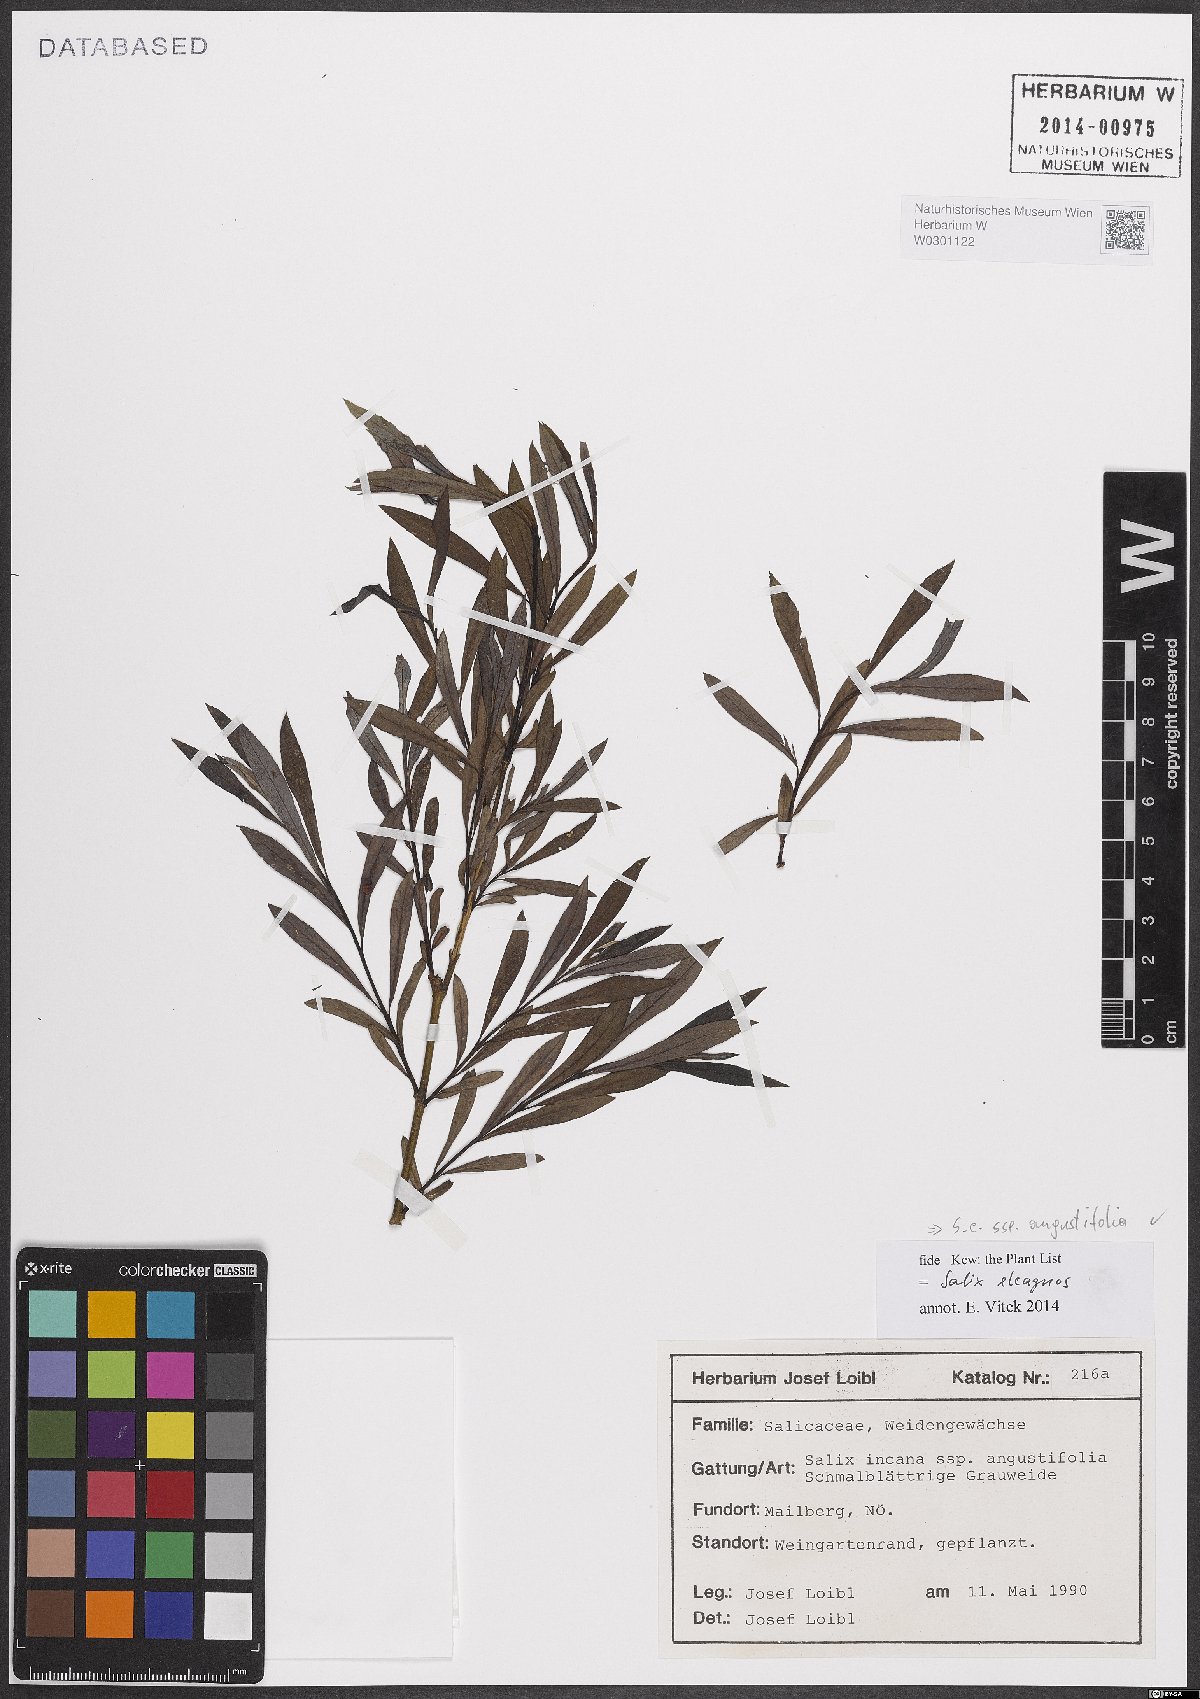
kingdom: Plantae
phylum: Tracheophyta
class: Magnoliopsida
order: Malpighiales
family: Salicaceae
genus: Salix
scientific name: Salix eleagnos
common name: Elaeagnus willow
